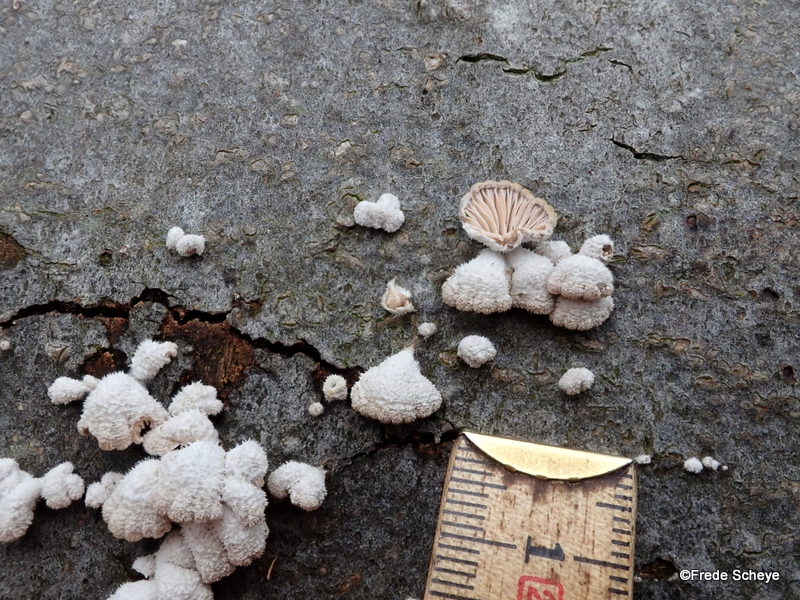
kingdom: Fungi
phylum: Basidiomycota
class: Agaricomycetes
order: Agaricales
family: Schizophyllaceae
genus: Schizophyllum
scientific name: Schizophyllum commune
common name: kløvblad
